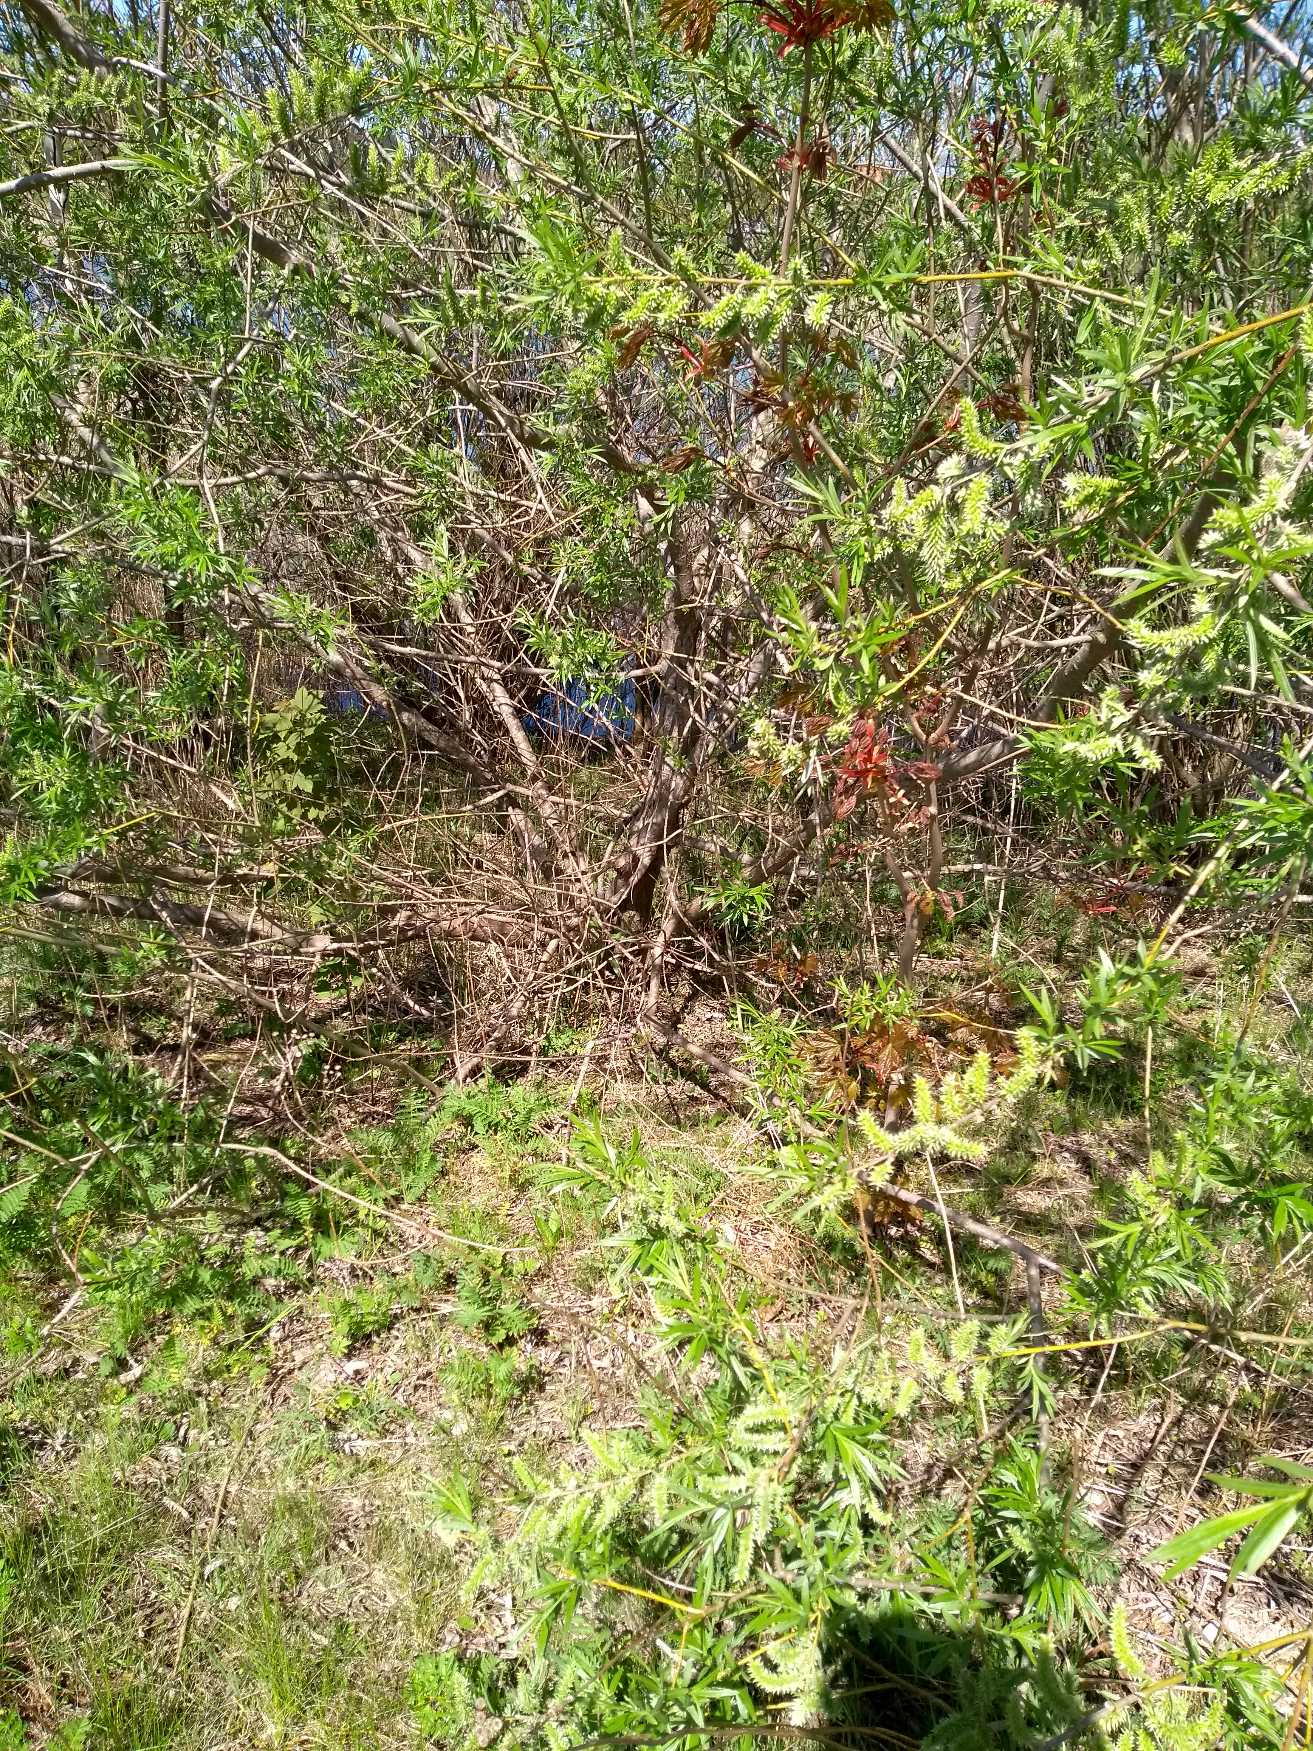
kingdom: Plantae
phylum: Tracheophyta
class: Magnoliopsida
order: Malpighiales
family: Salicaceae
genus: Salix
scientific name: Salix viminalis
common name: Bånd-pil
